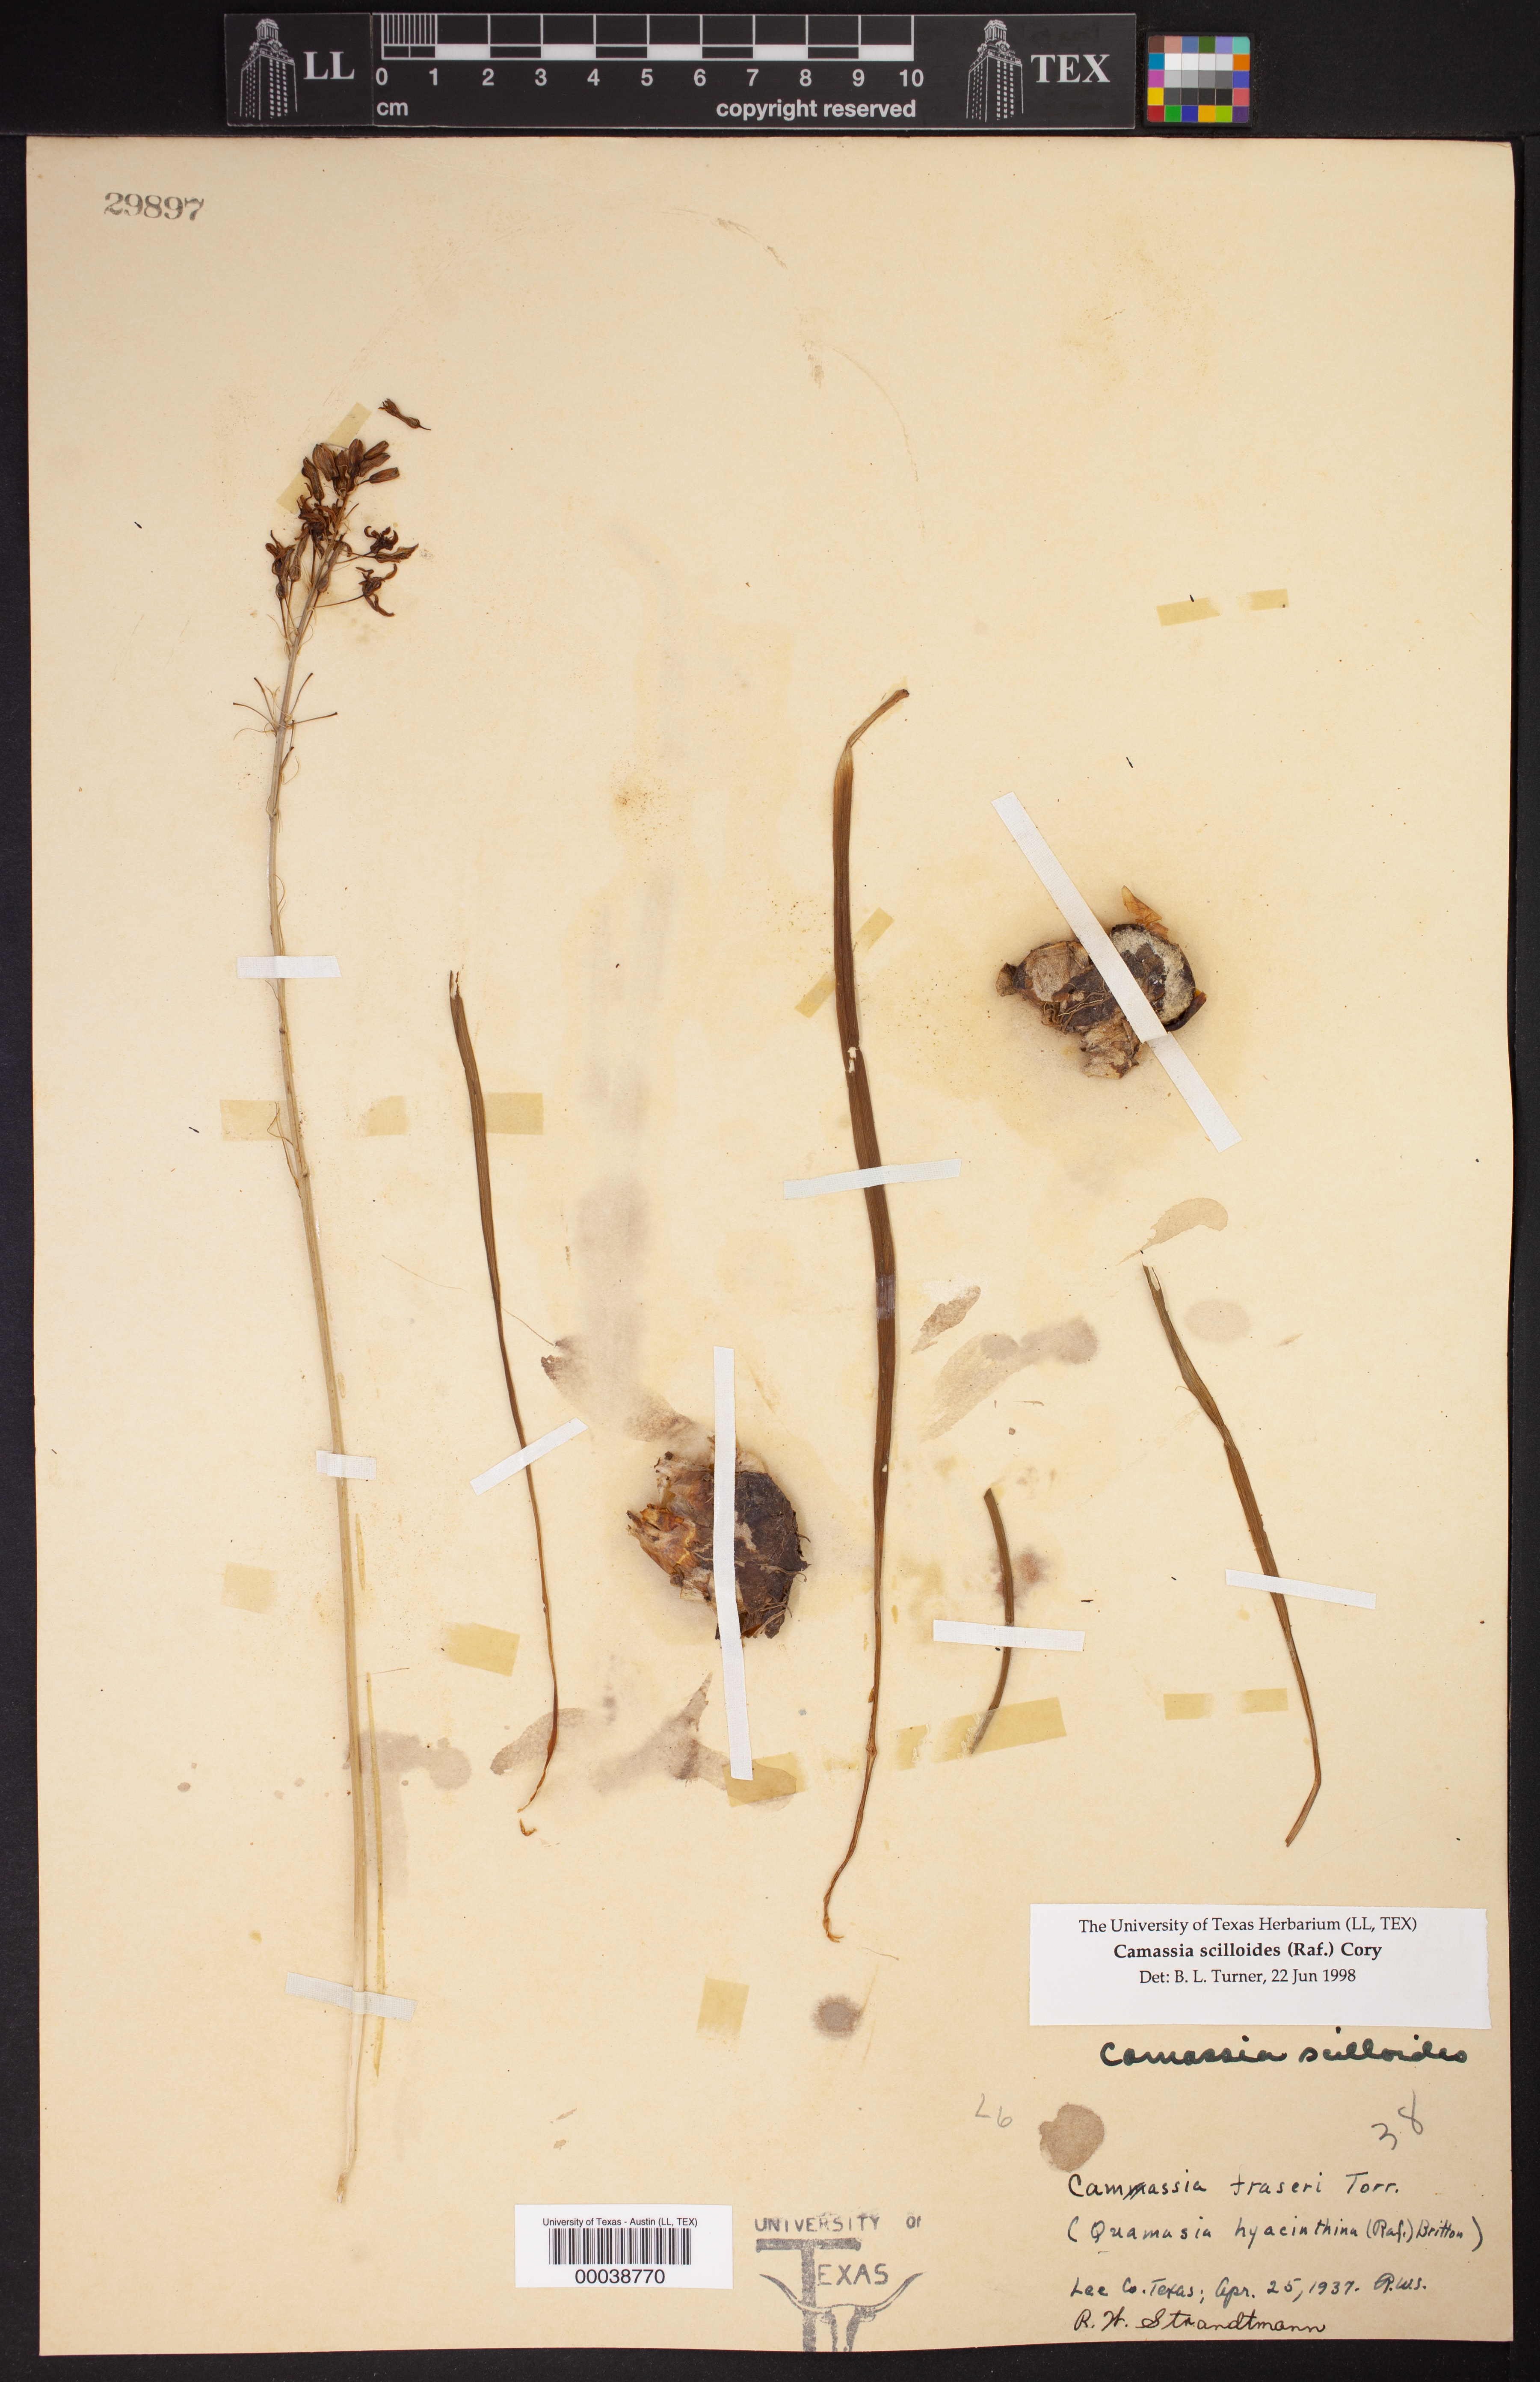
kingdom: Plantae
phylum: Tracheophyta
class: Liliopsida
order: Asparagales
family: Asparagaceae
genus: Camassia
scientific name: Camassia scilloides
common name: Wild hyacinth
